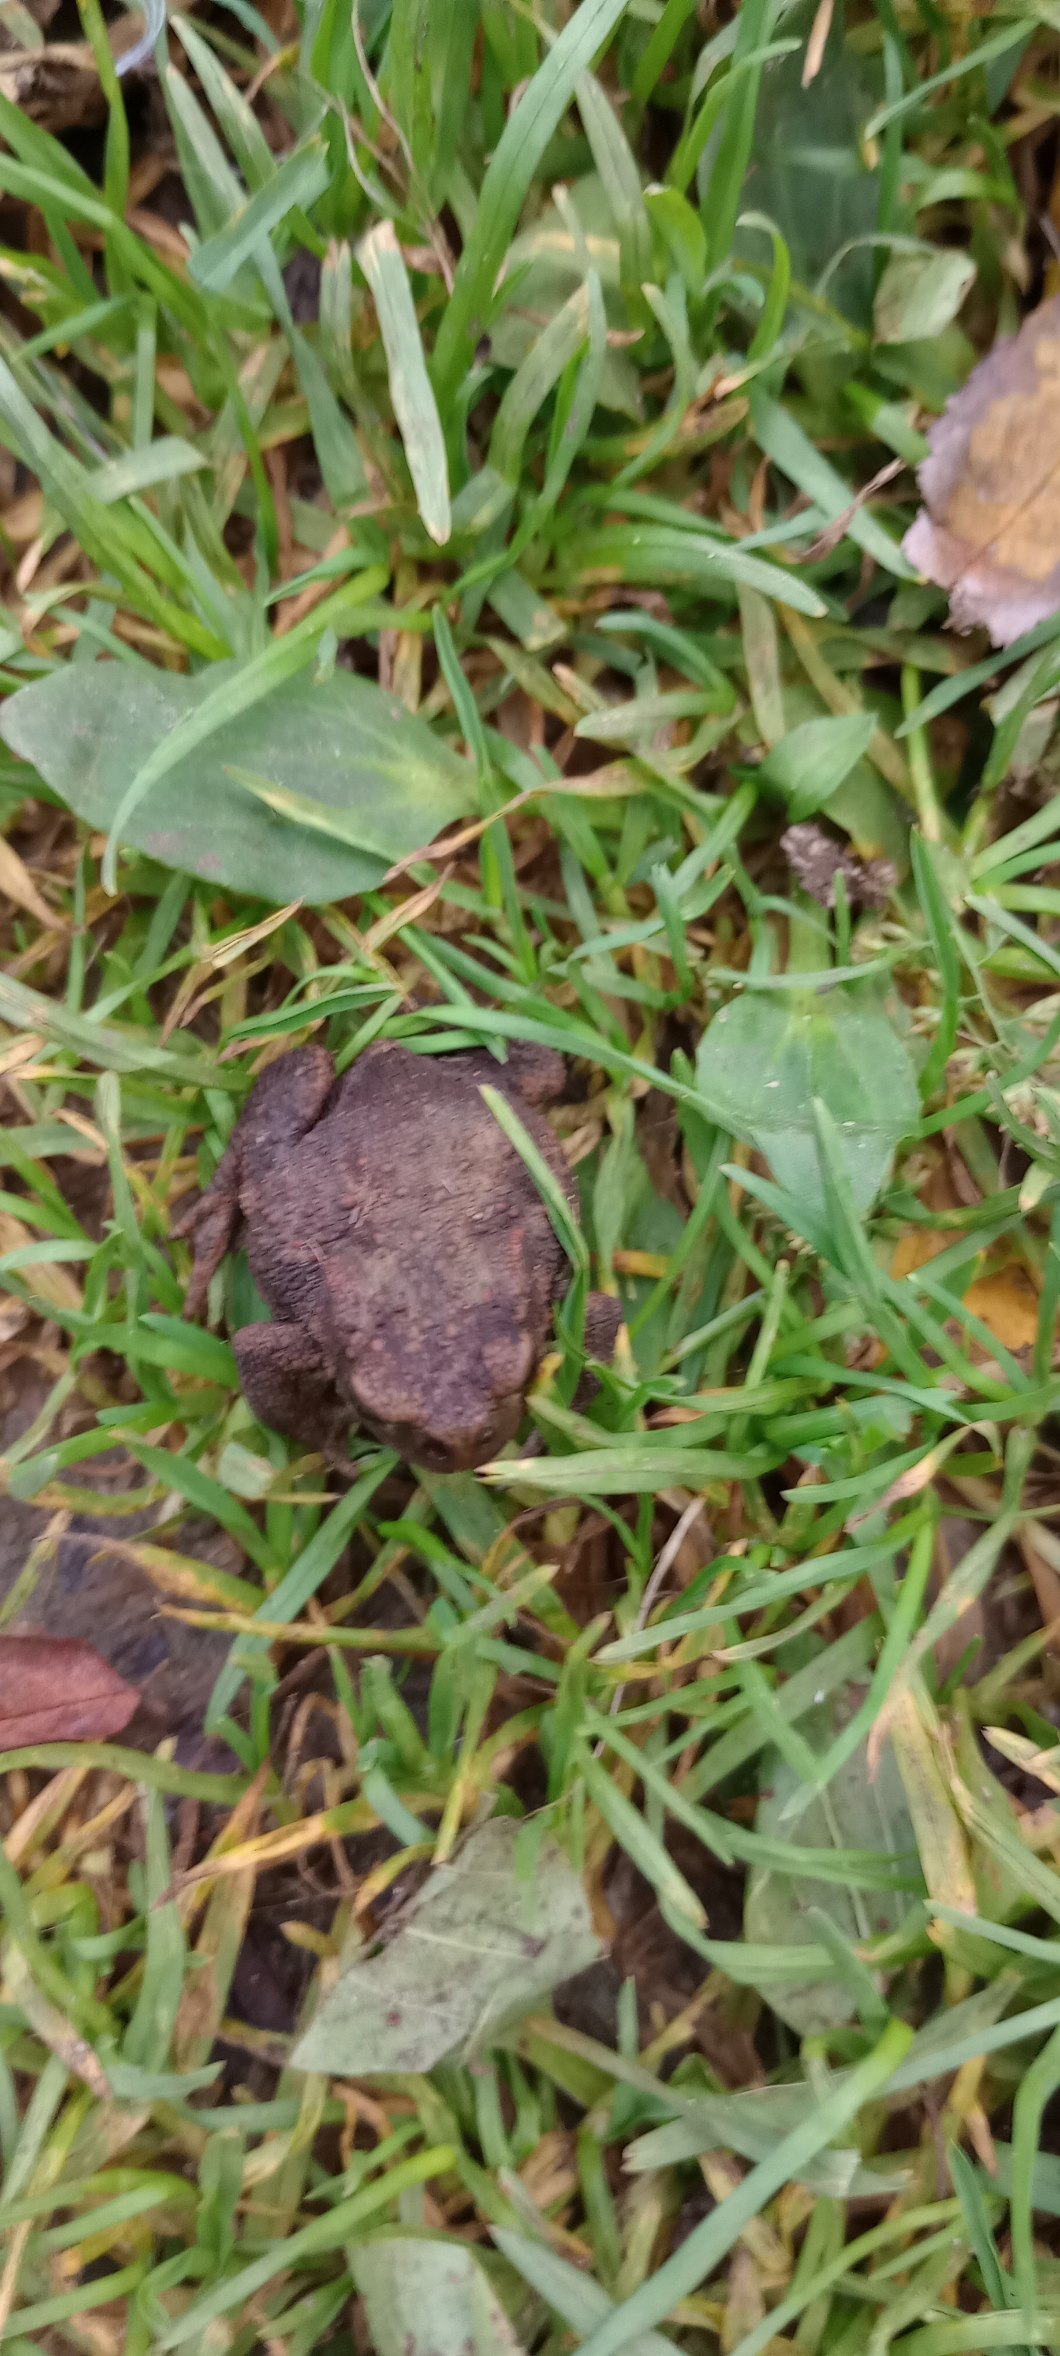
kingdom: Animalia
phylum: Chordata
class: Amphibia
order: Anura
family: Bufonidae
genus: Bufo
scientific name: Bufo bufo
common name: Skrubtudse
